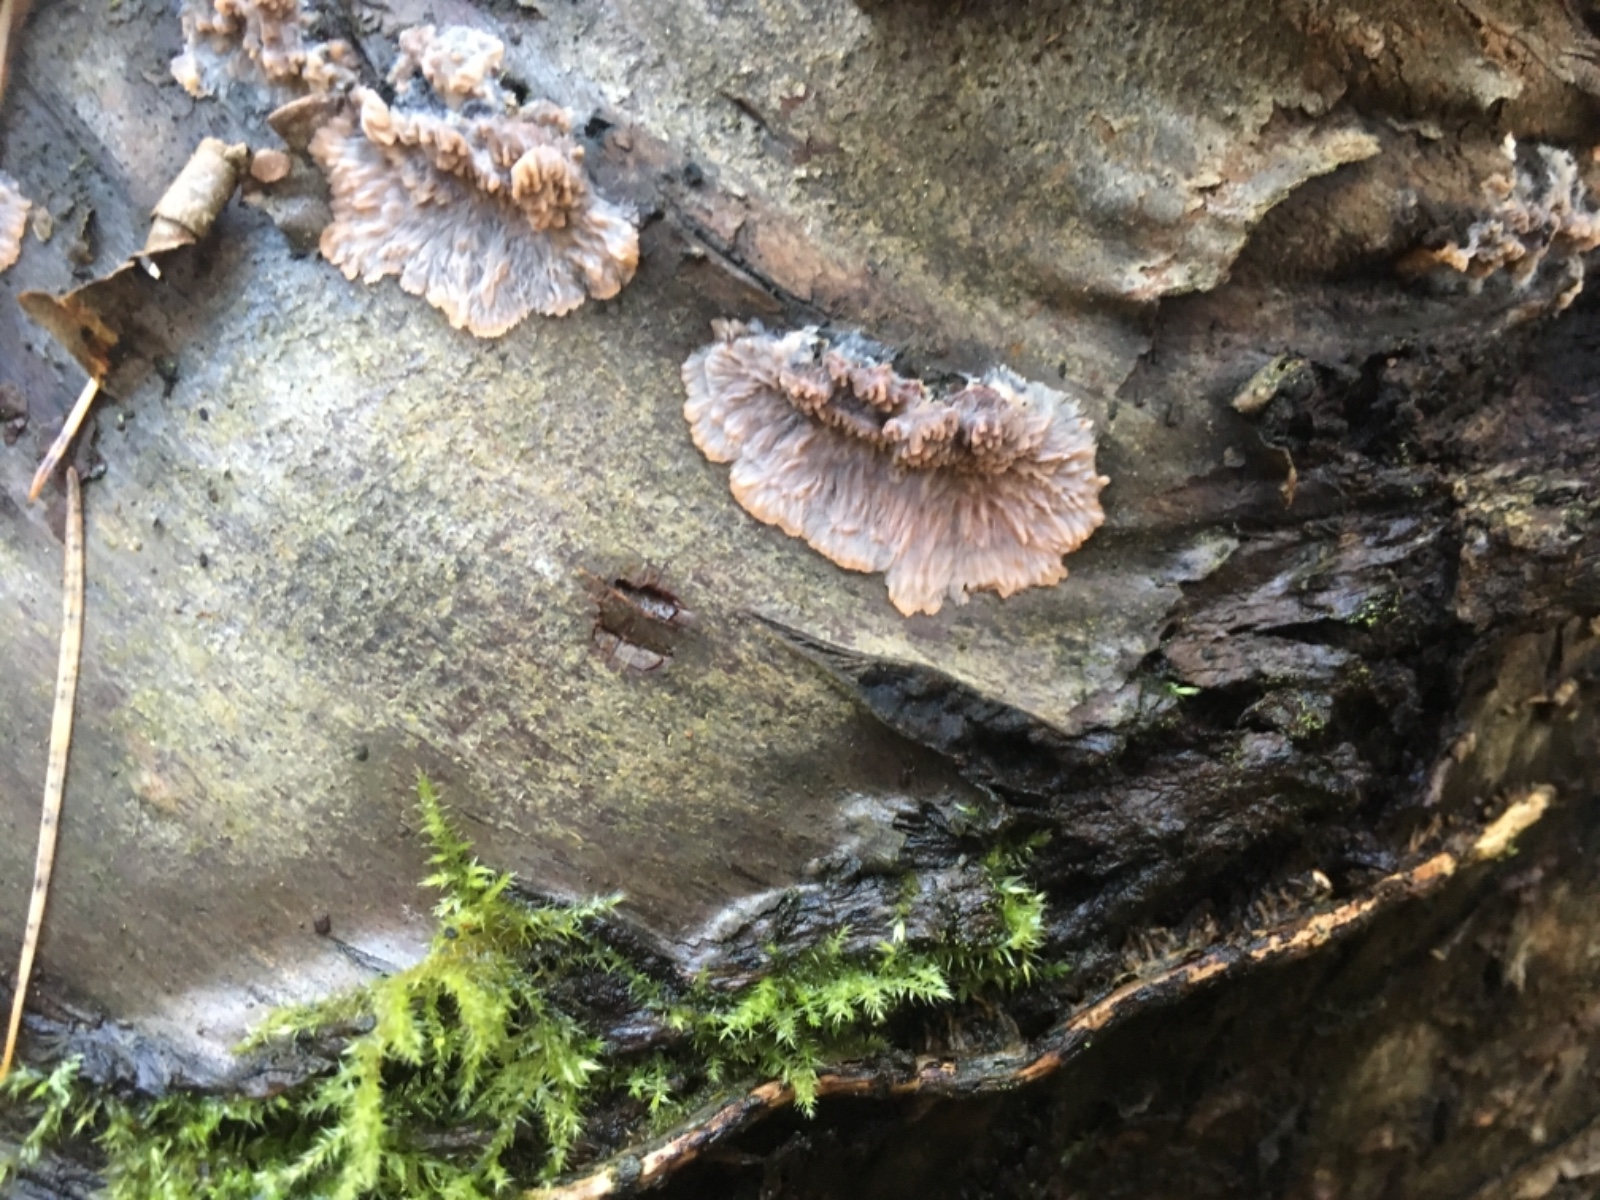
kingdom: Fungi
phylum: Basidiomycota
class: Agaricomycetes
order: Polyporales
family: Meruliaceae
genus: Phlebia
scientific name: Phlebia radiata
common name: stråle-åresvamp
